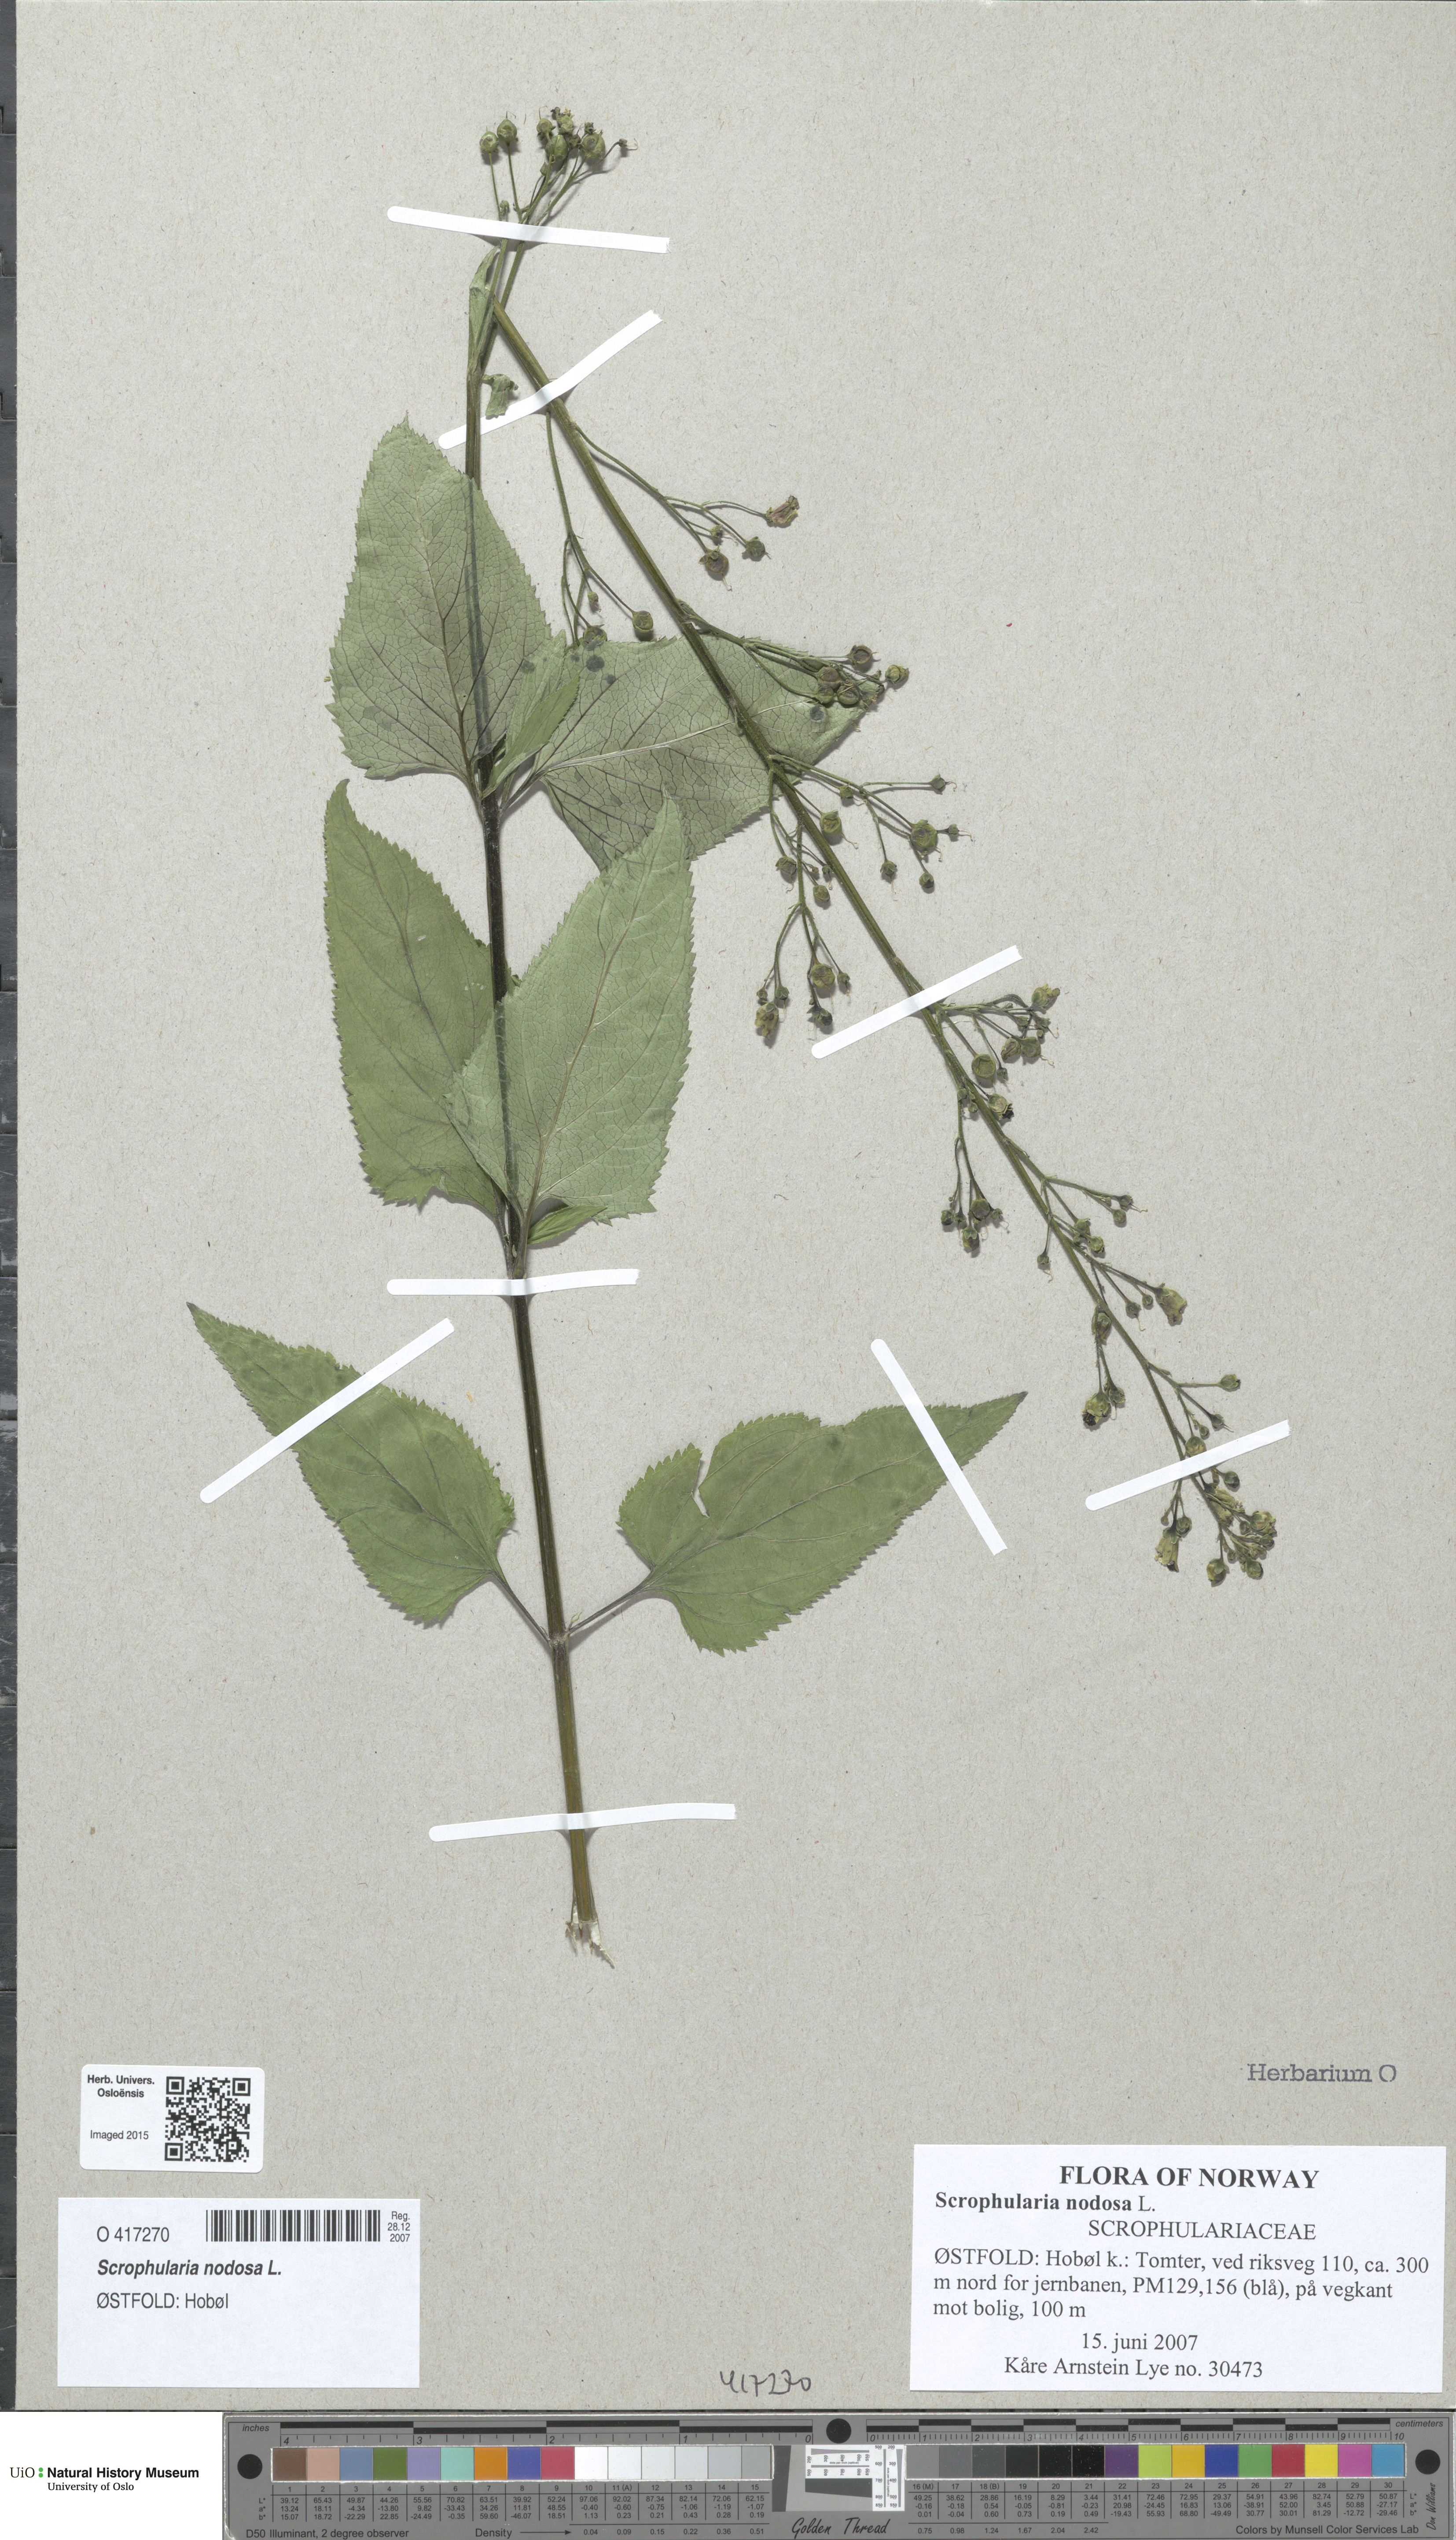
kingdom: Plantae
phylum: Tracheophyta
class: Magnoliopsida
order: Lamiales
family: Scrophulariaceae
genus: Scrophularia
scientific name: Scrophularia nodosa
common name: Common figwort
